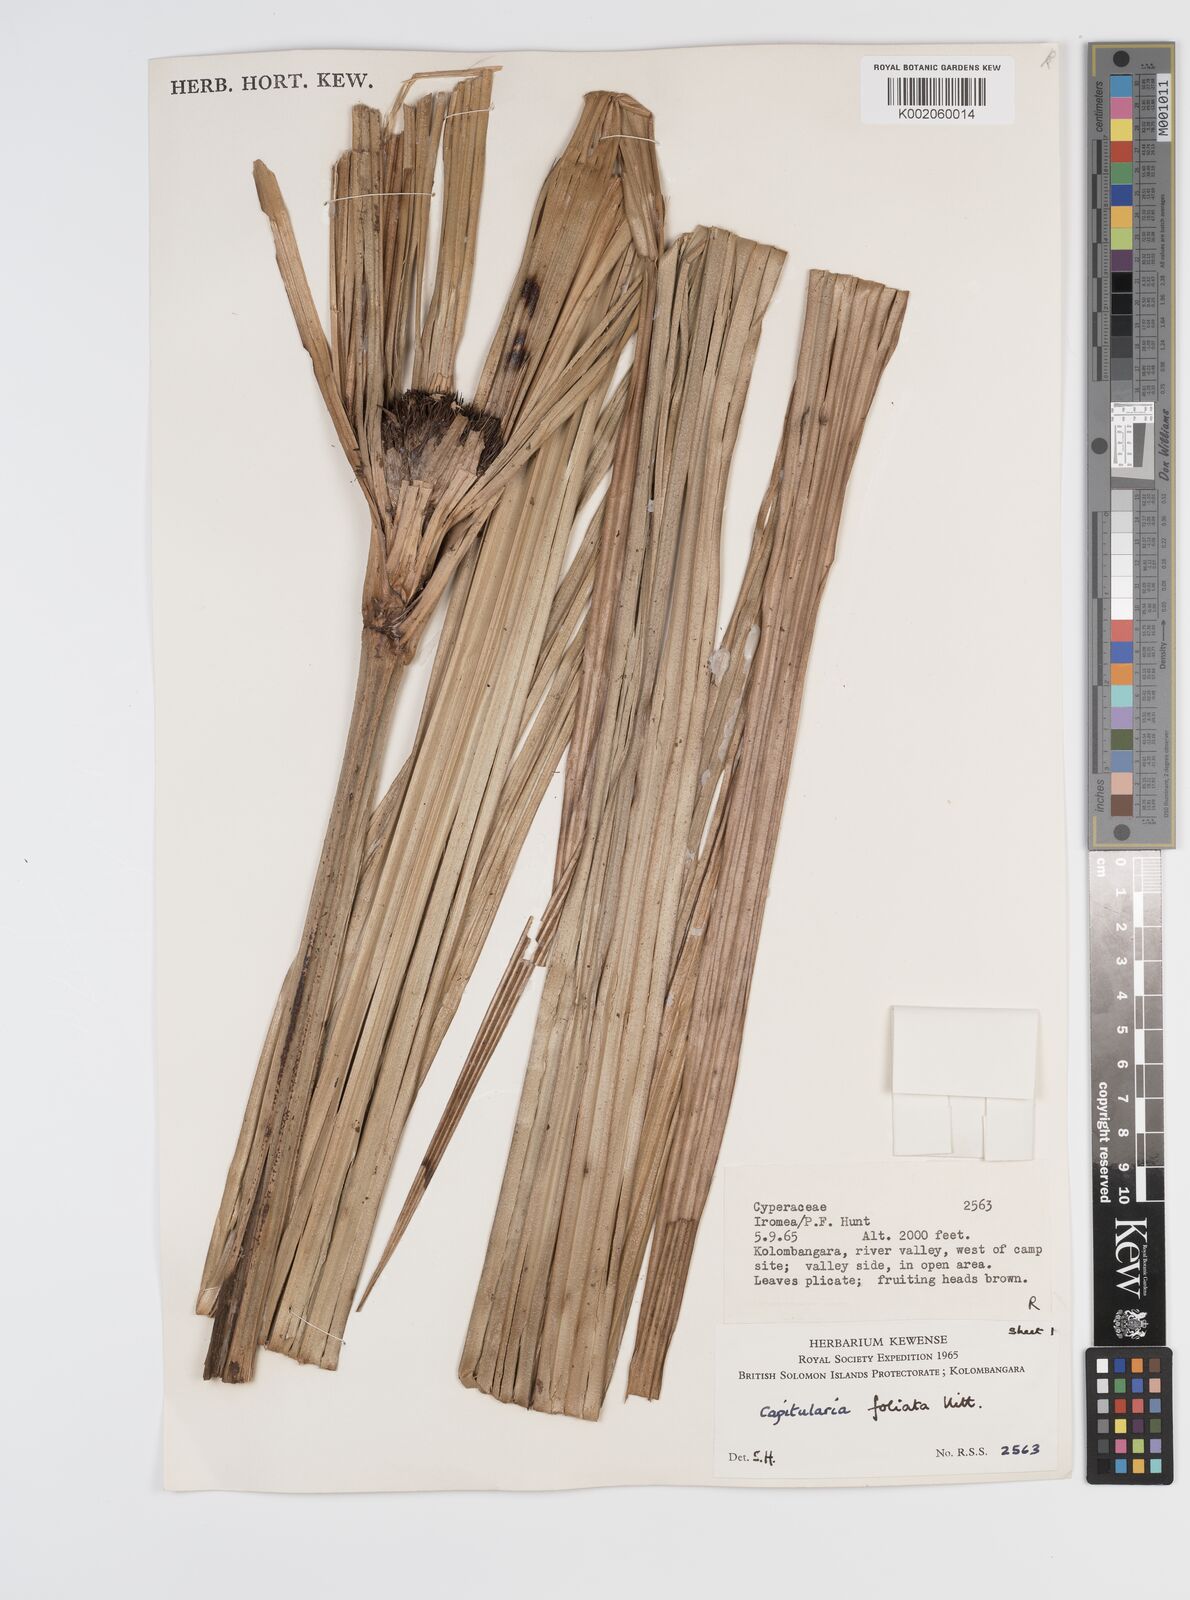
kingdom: Plantae
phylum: Tracheophyta
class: Liliopsida
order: Poales
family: Cyperaceae
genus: Capitularina
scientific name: Capitularina
